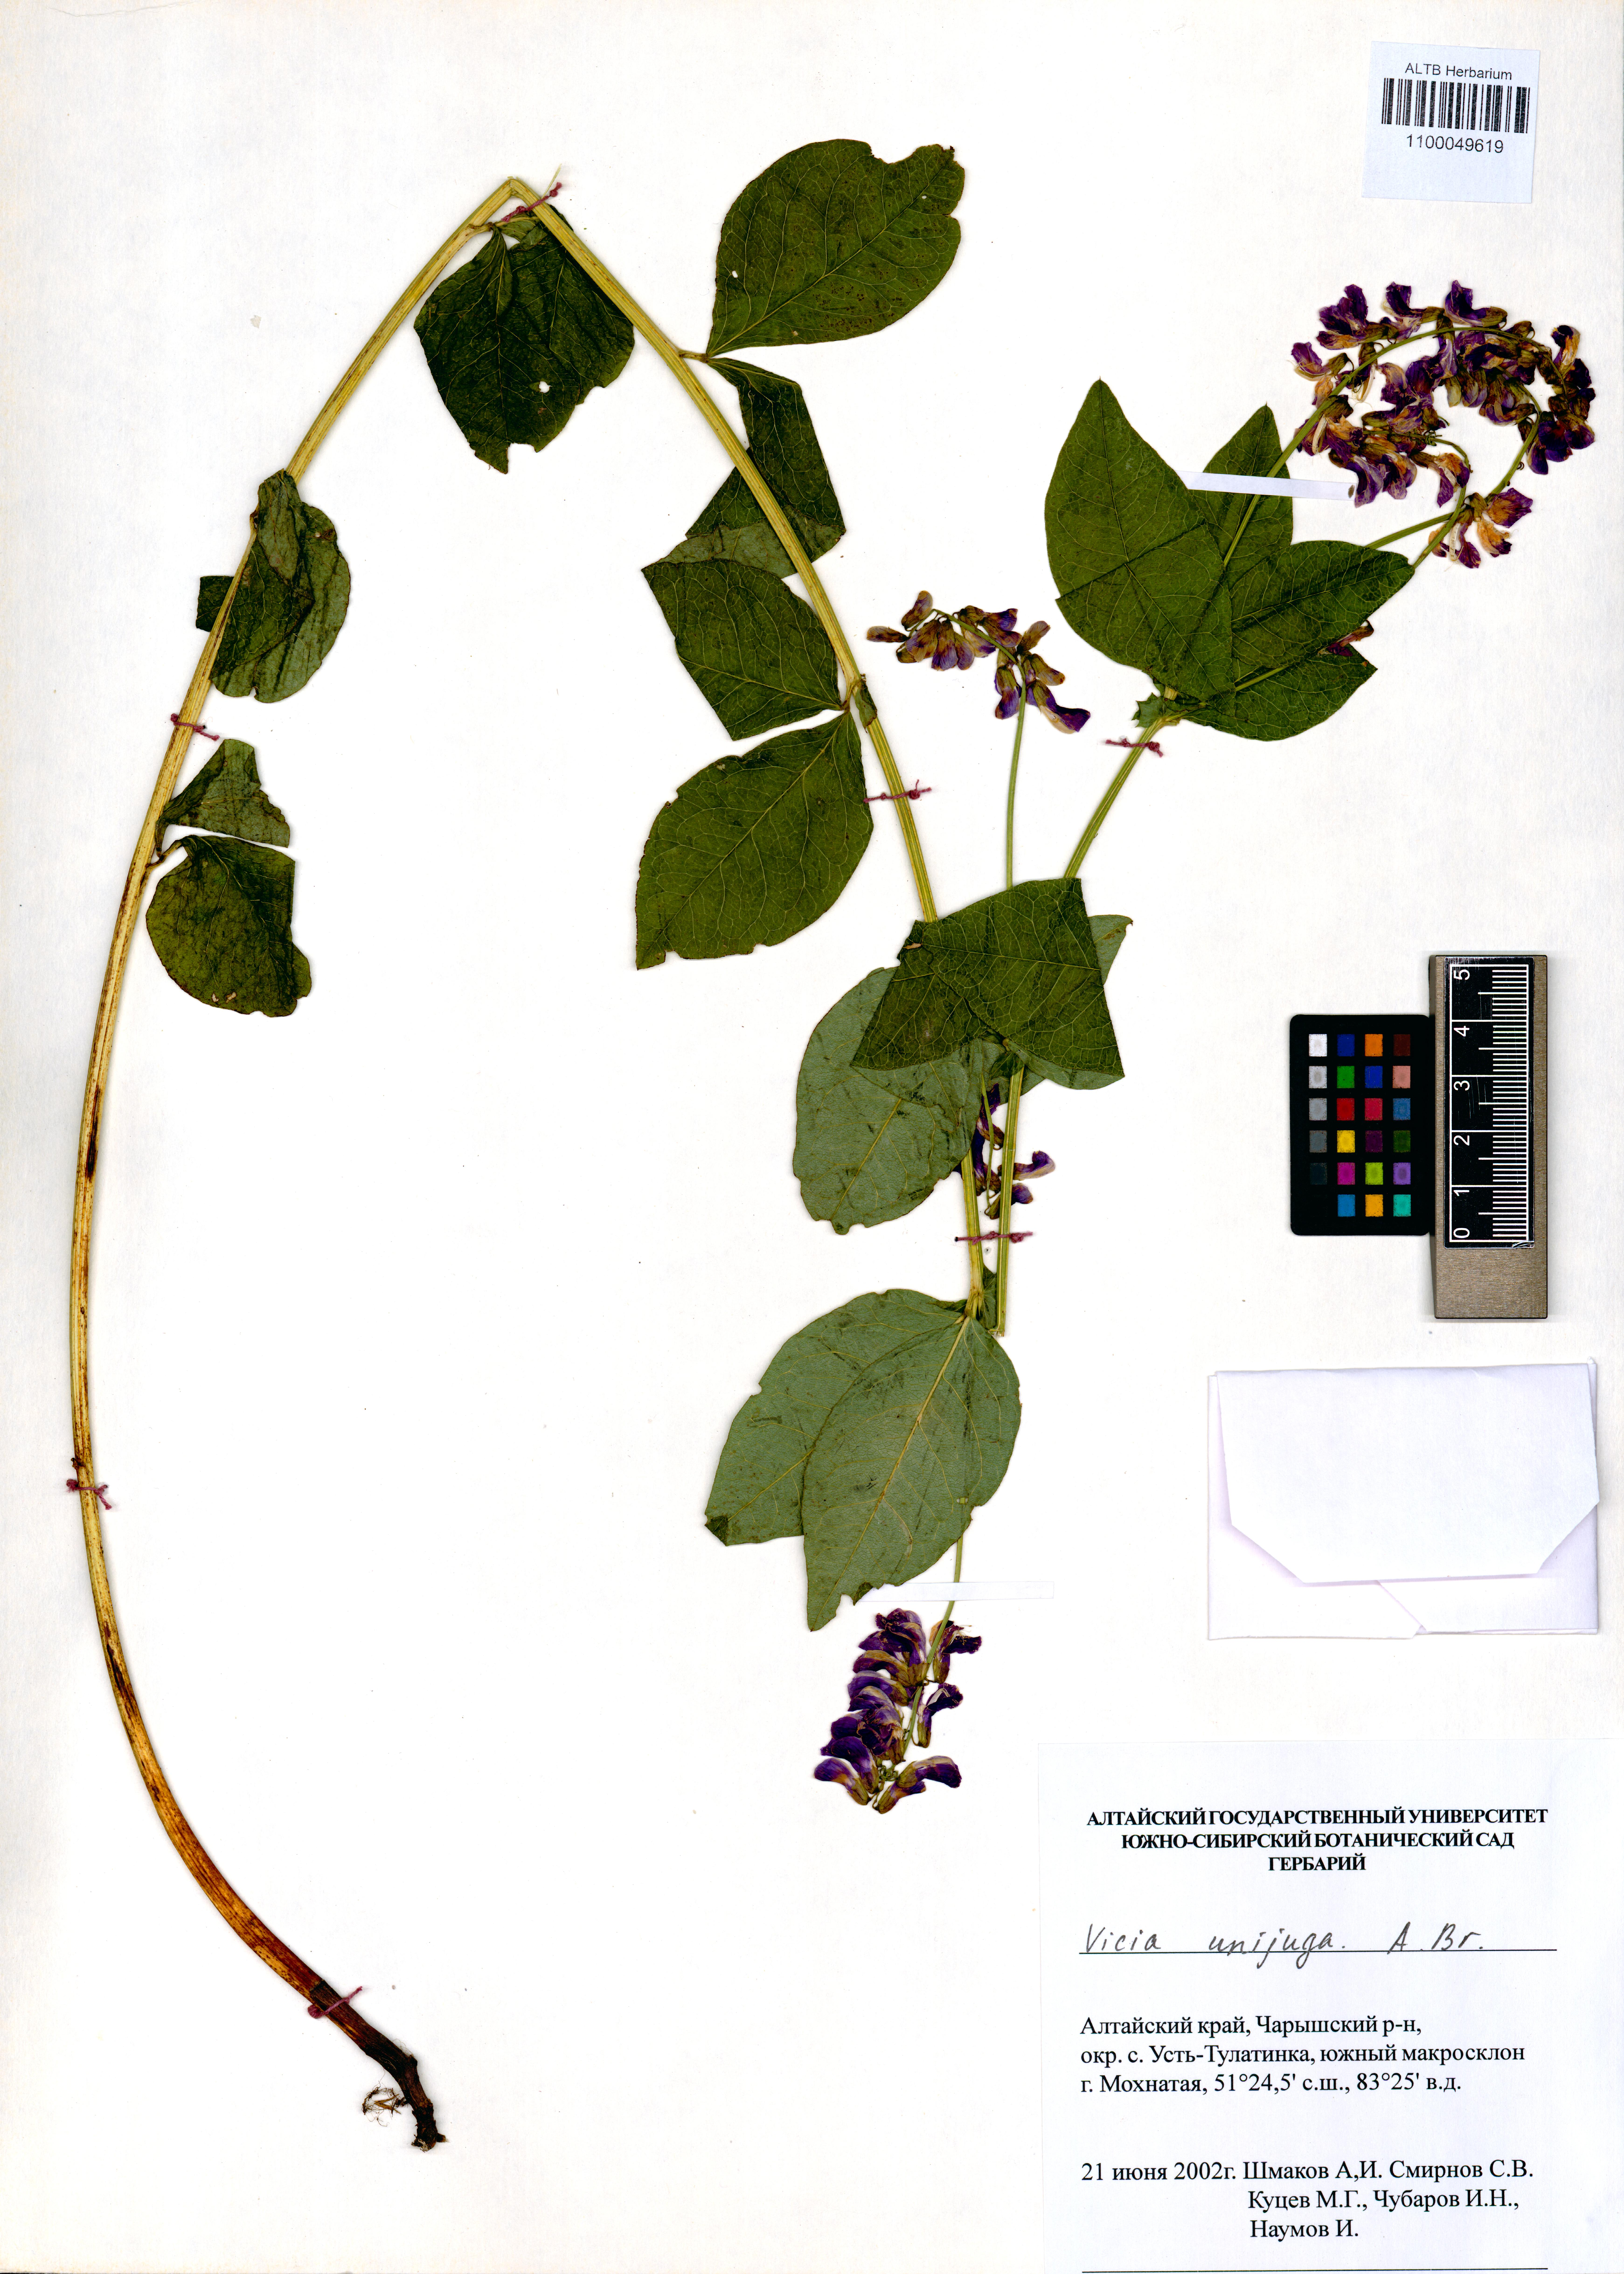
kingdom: Plantae
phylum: Tracheophyta
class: Magnoliopsida
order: Fabales
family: Fabaceae
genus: Vicia
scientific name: Vicia unijuga
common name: Two-leaf vetch
